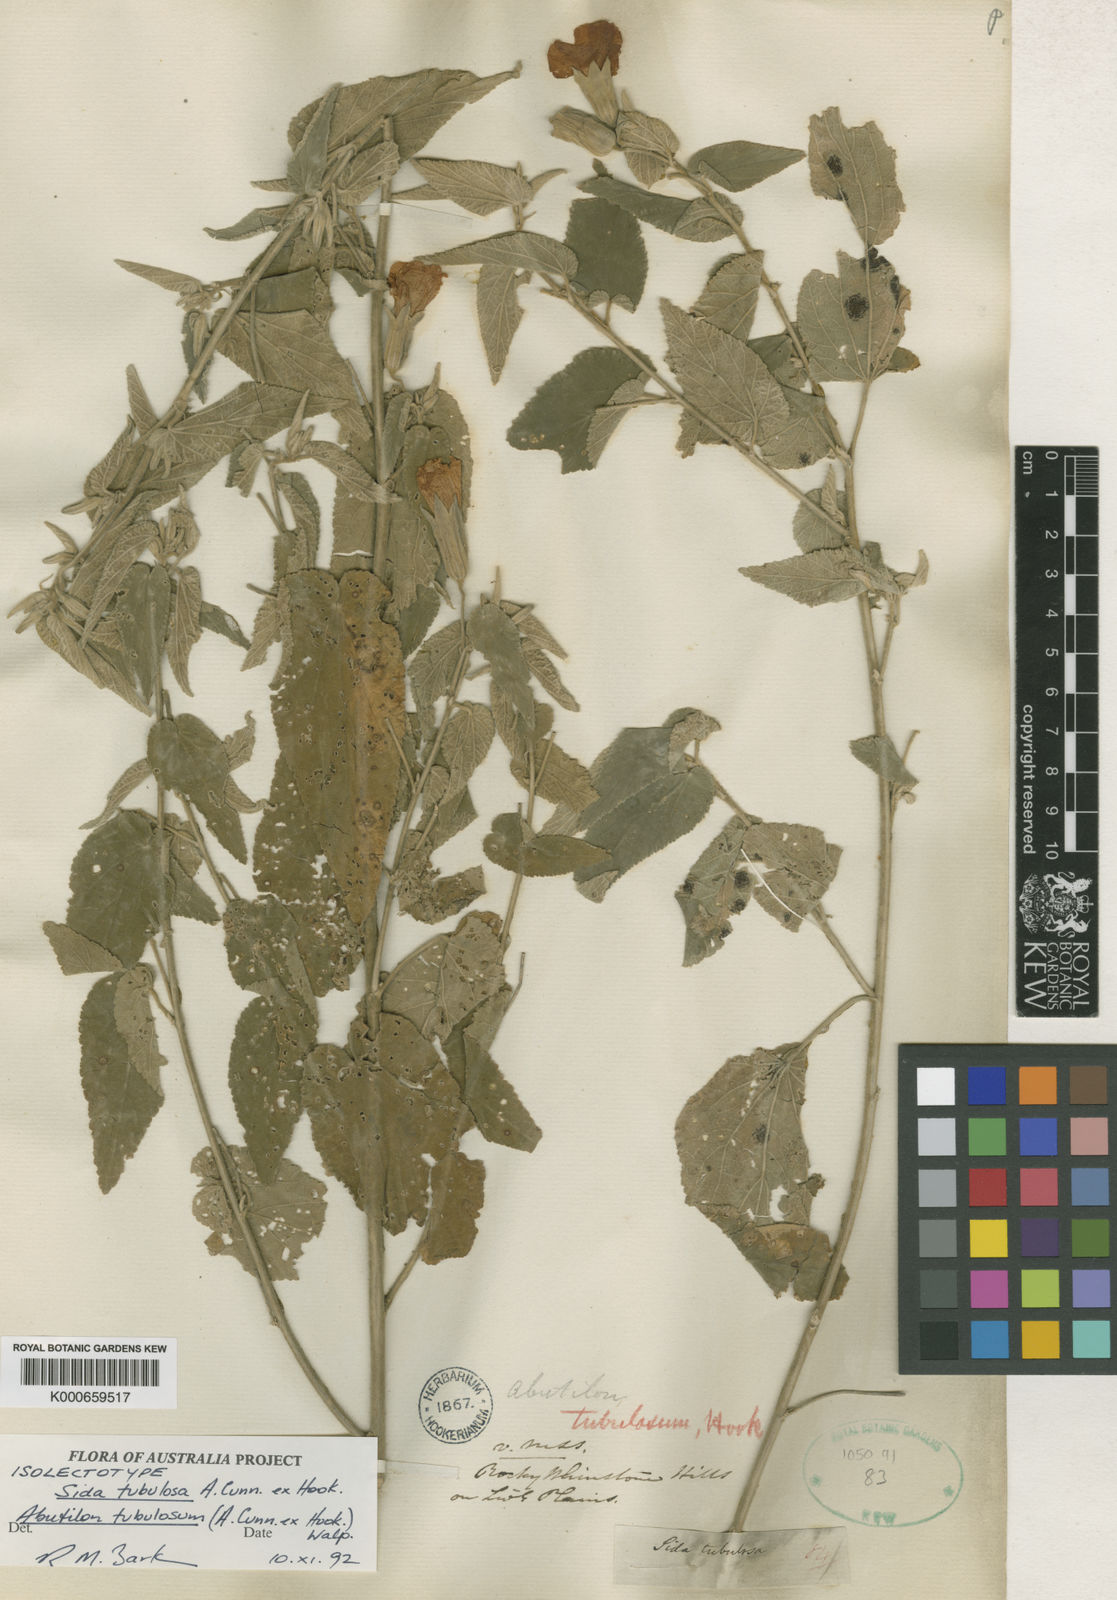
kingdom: Plantae
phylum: Tracheophyta
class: Magnoliopsida
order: Malvales
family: Malvaceae
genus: Abutilon
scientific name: Abutilon tubulosum
